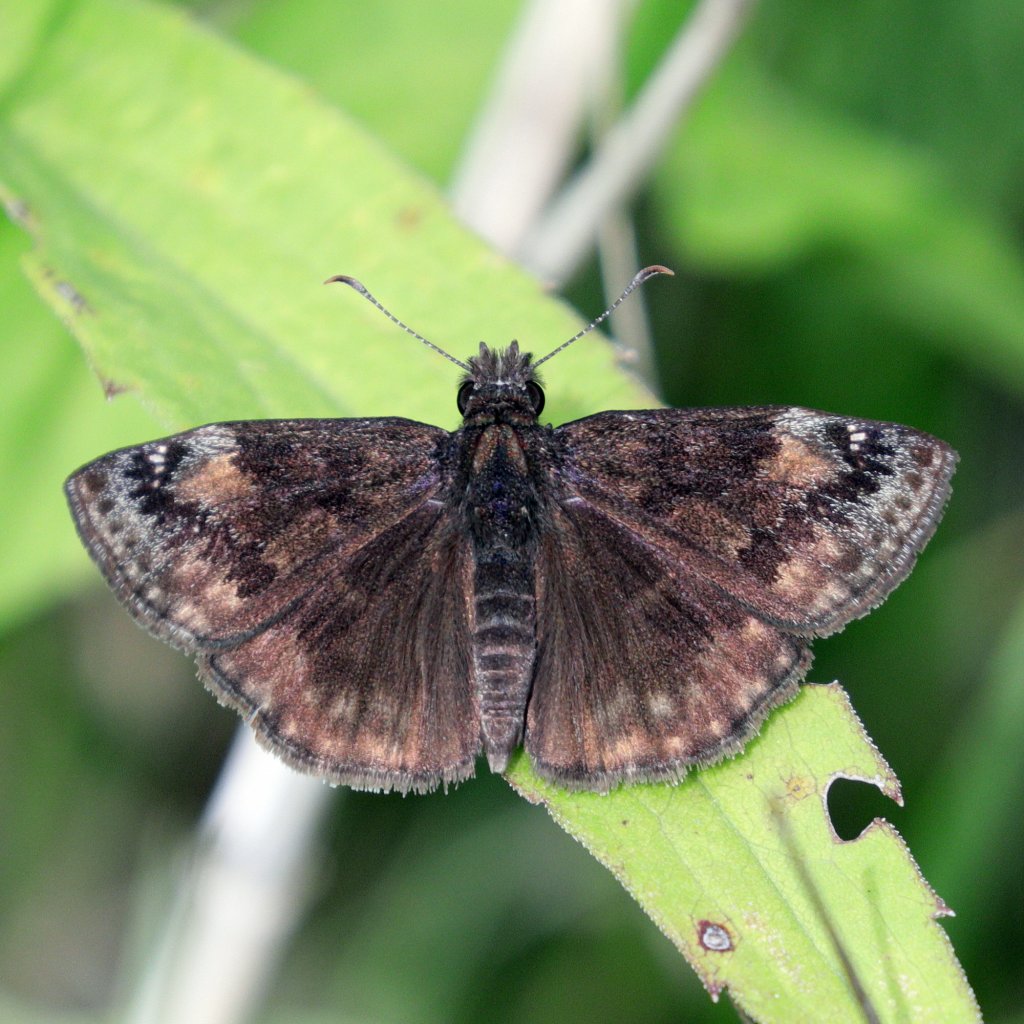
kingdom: Animalia
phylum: Arthropoda
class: Insecta
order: Lepidoptera
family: Hesperiidae
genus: Gesta
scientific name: Gesta
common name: Wild Indigo Duskywing
